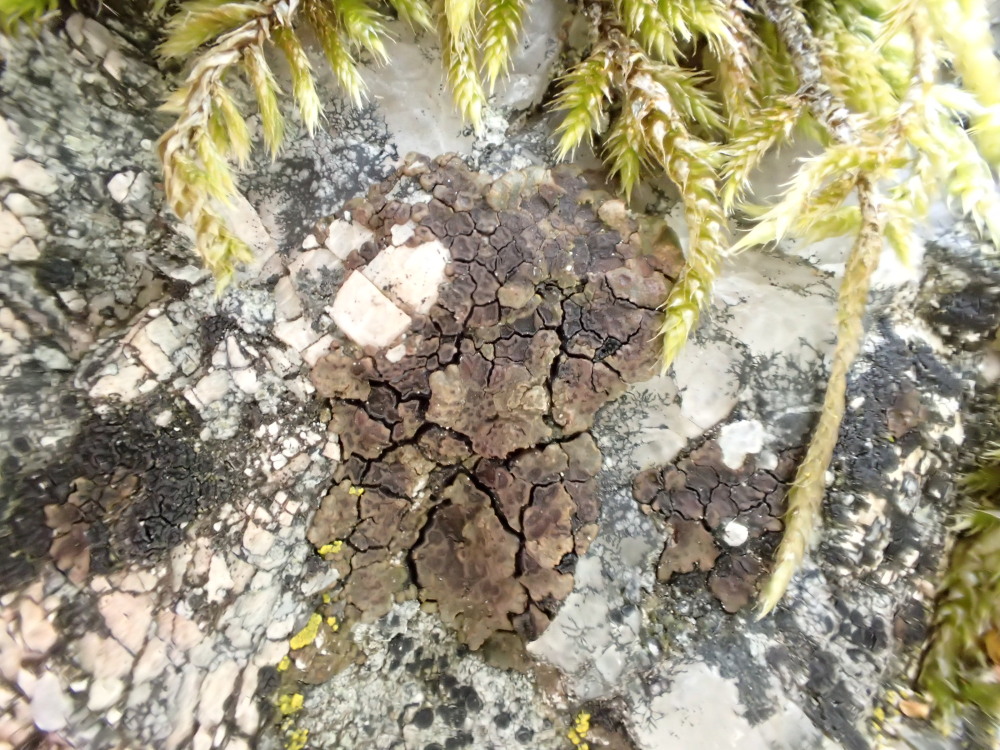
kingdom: Fungi
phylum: Ascomycota
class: Lecanoromycetes
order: Acarosporales
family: Acarosporaceae
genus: Acarospora
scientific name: Acarospora fuscata
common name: brun småsporelav
